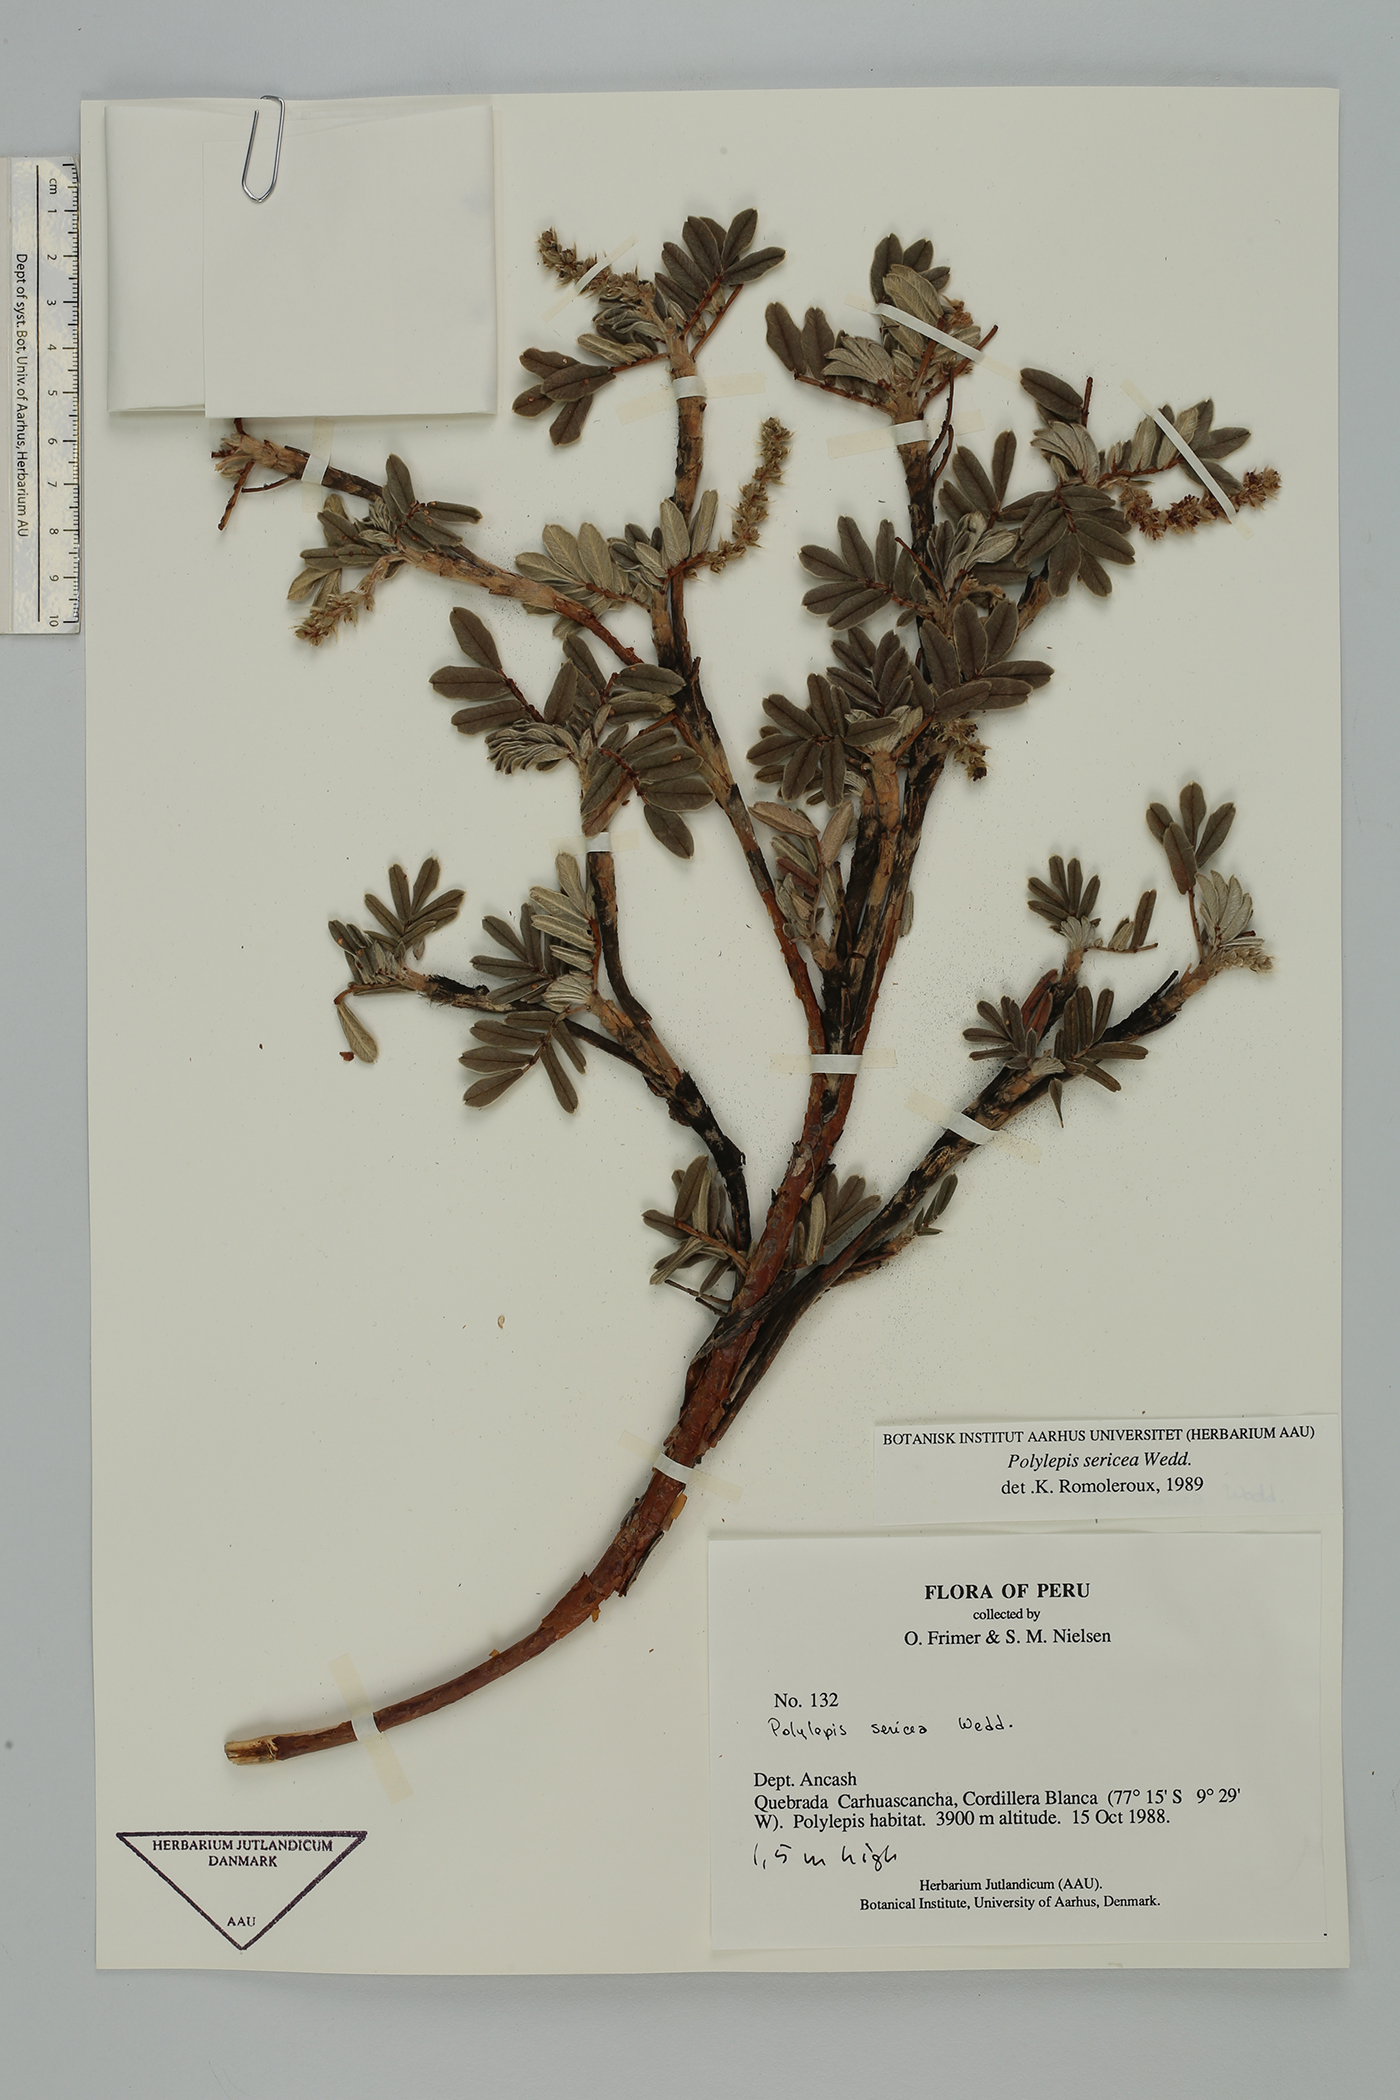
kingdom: Plantae
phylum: Tracheophyta
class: Magnoliopsida
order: Rosales
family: Rosaceae
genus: Polylepis
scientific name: Polylepis sericea
